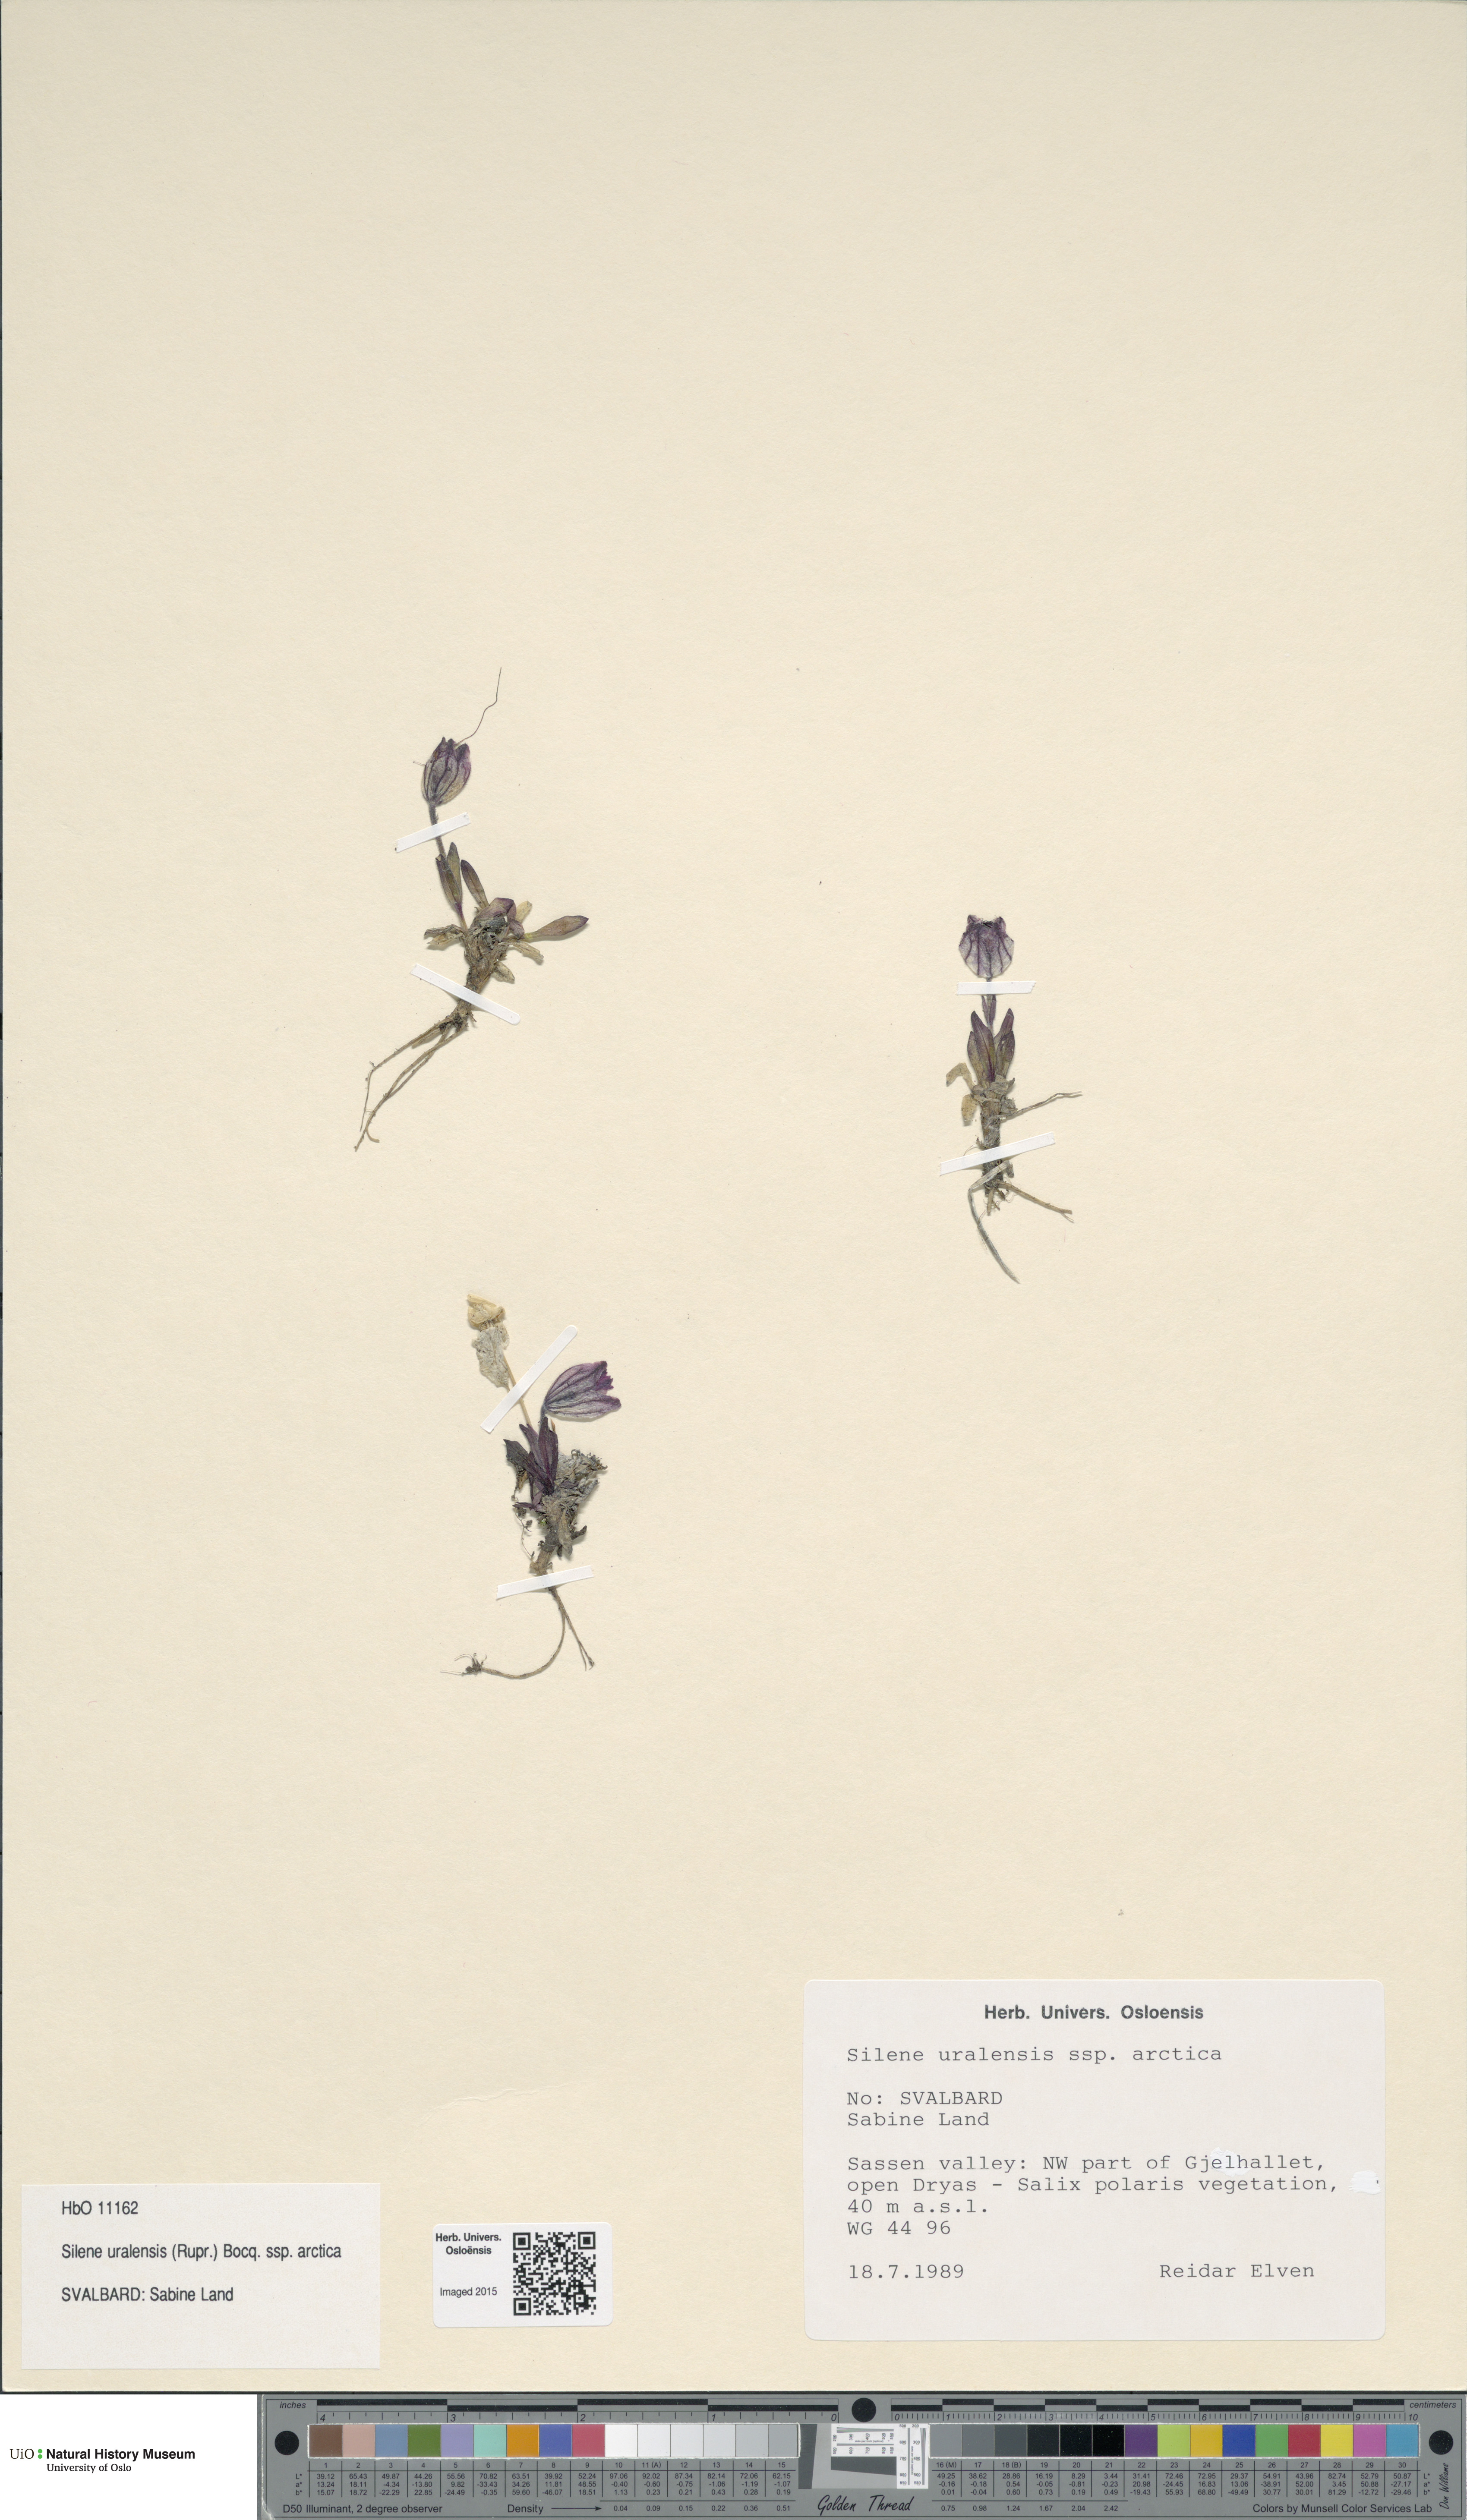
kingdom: Plantae
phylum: Tracheophyta
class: Magnoliopsida
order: Caryophyllales
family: Caryophyllaceae
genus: Silene
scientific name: Silene uralensis
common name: Nodding campion
